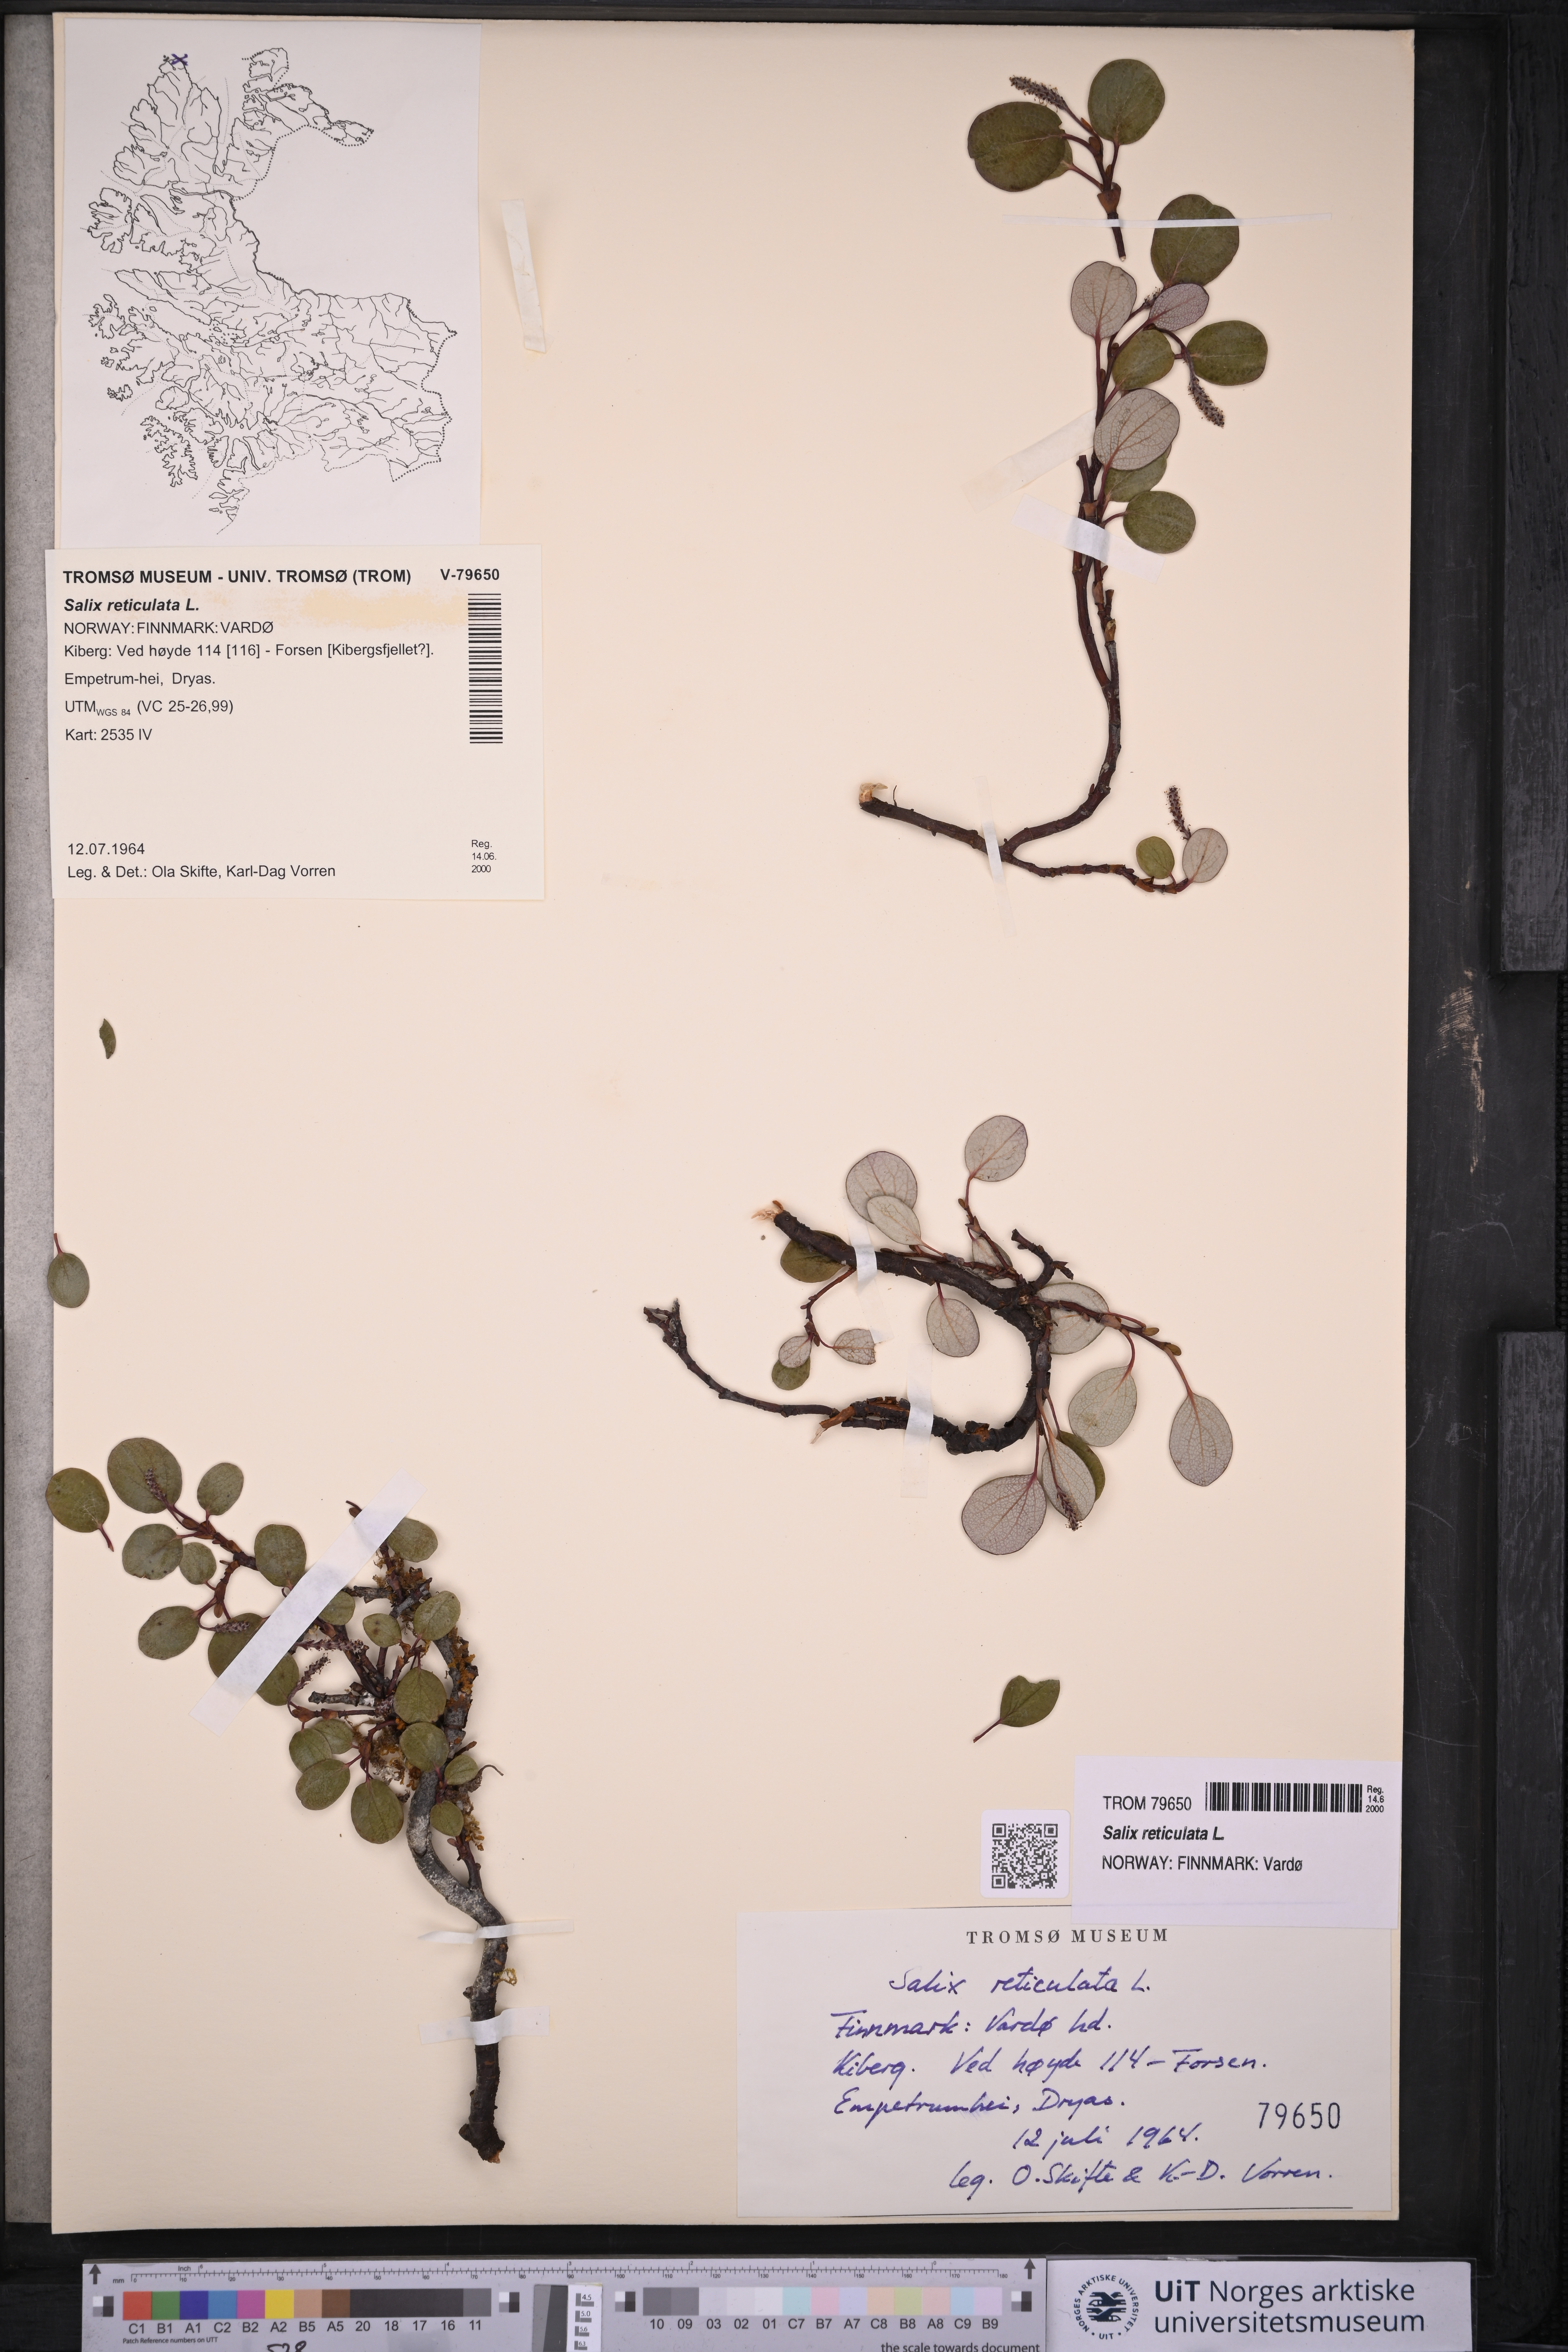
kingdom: Plantae
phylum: Tracheophyta
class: Magnoliopsida
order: Malpighiales
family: Salicaceae
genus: Salix
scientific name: Salix reticulata
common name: Net-leaved willow
